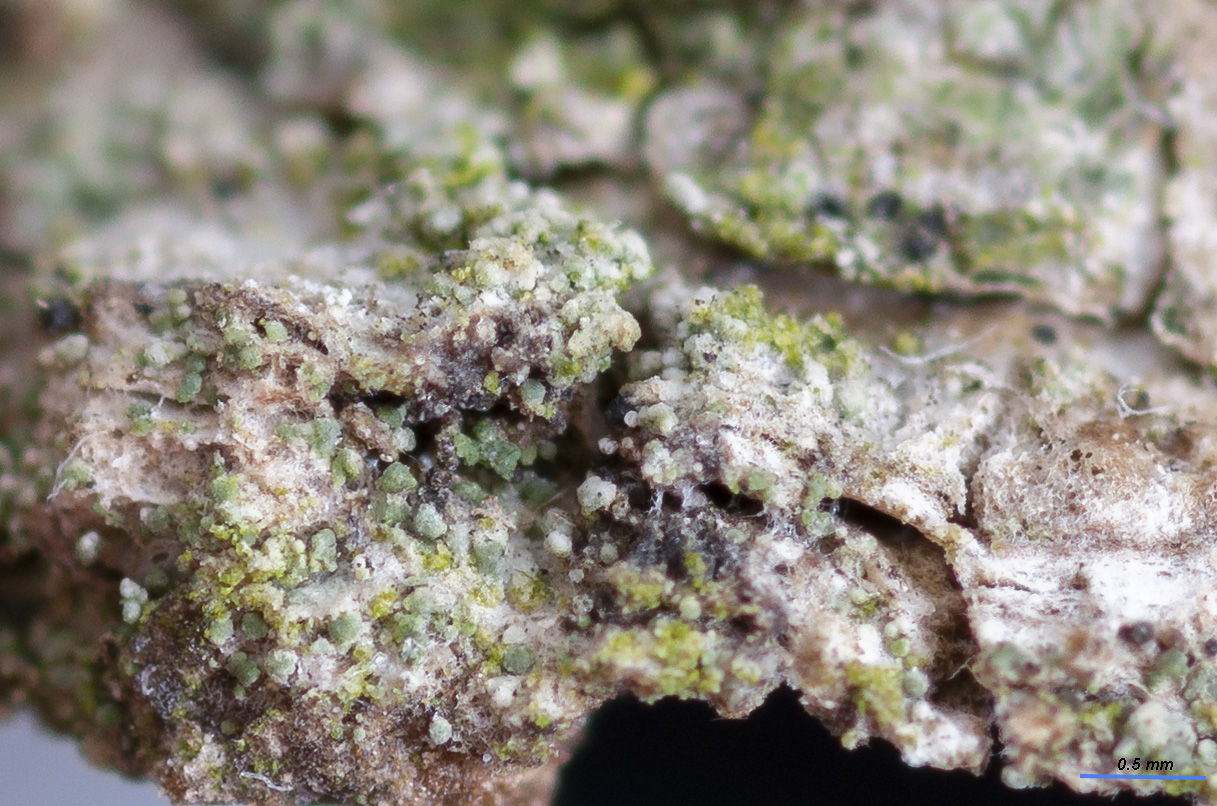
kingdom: Fungi
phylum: Ascomycota
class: Lecanoromycetes
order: Lecanorales
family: Byssolomataceae
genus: Szczawinskia
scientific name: Szczawinskia tsugae
